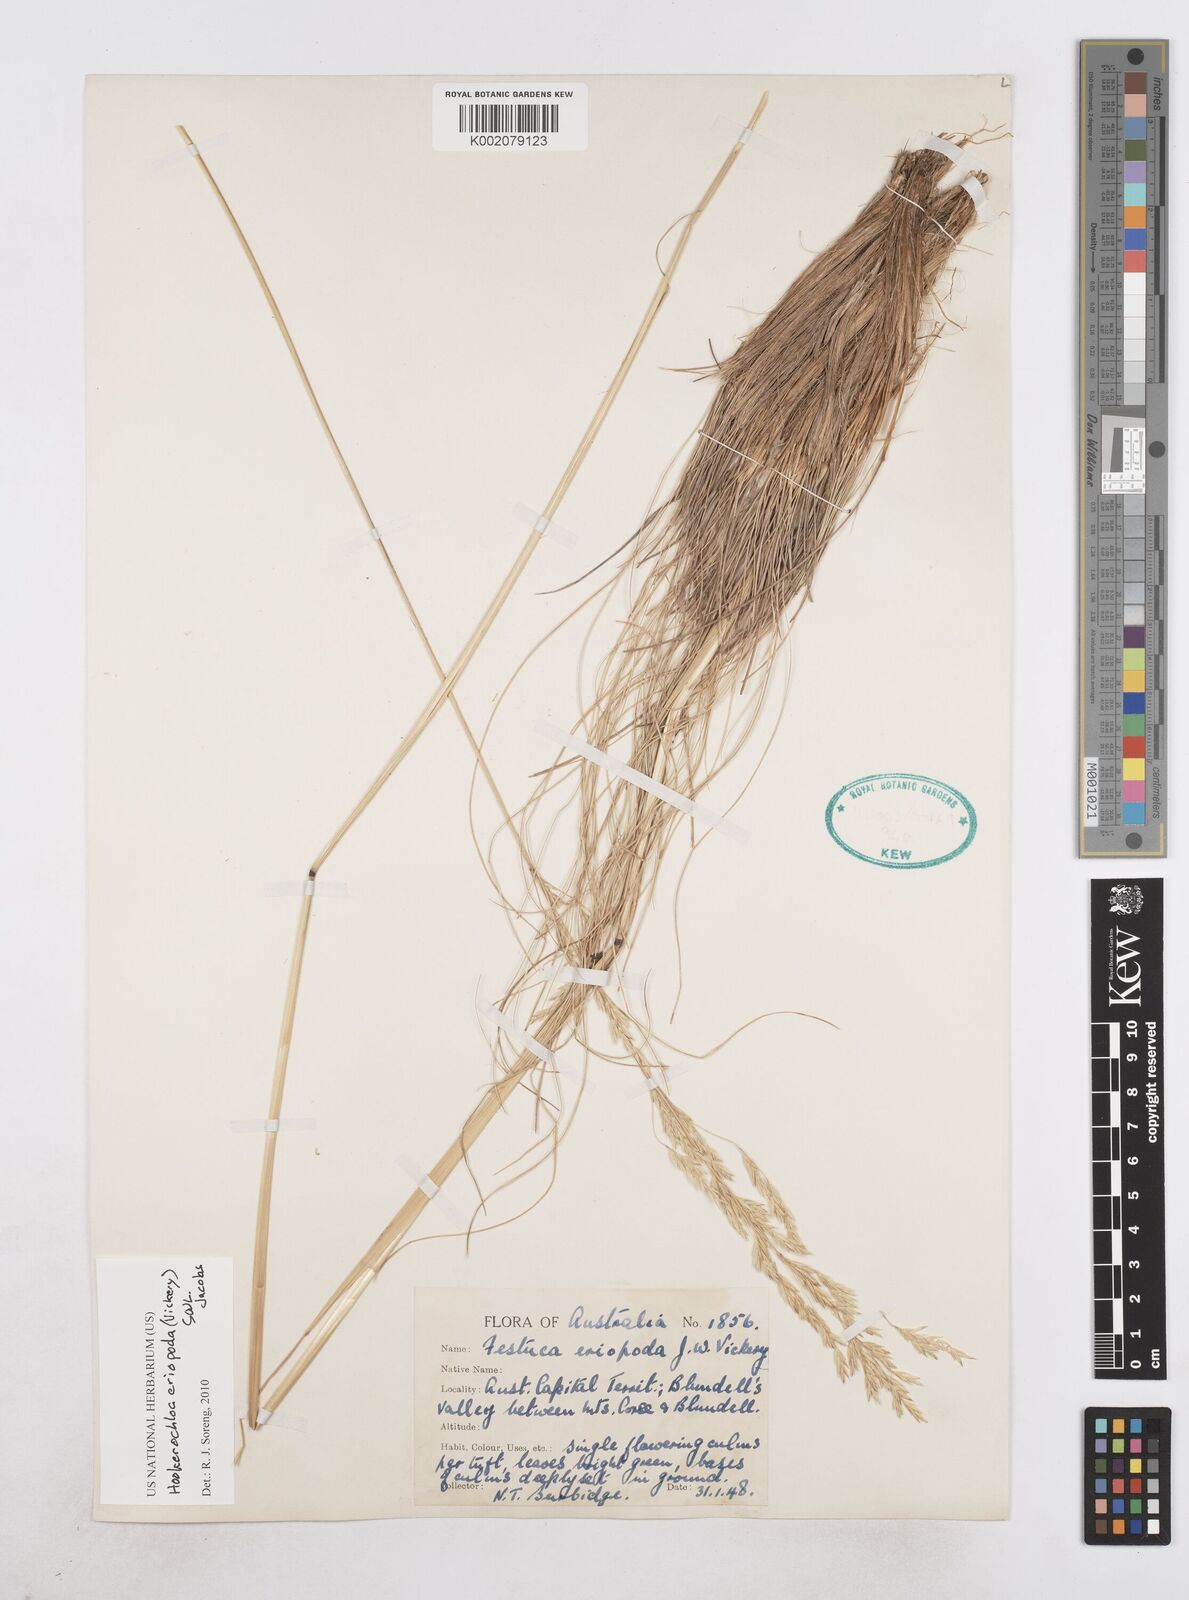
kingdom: Plantae
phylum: Tracheophyta
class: Liliopsida
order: Poales
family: Poaceae
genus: Hookerochloa
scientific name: Hookerochloa eriopoda
